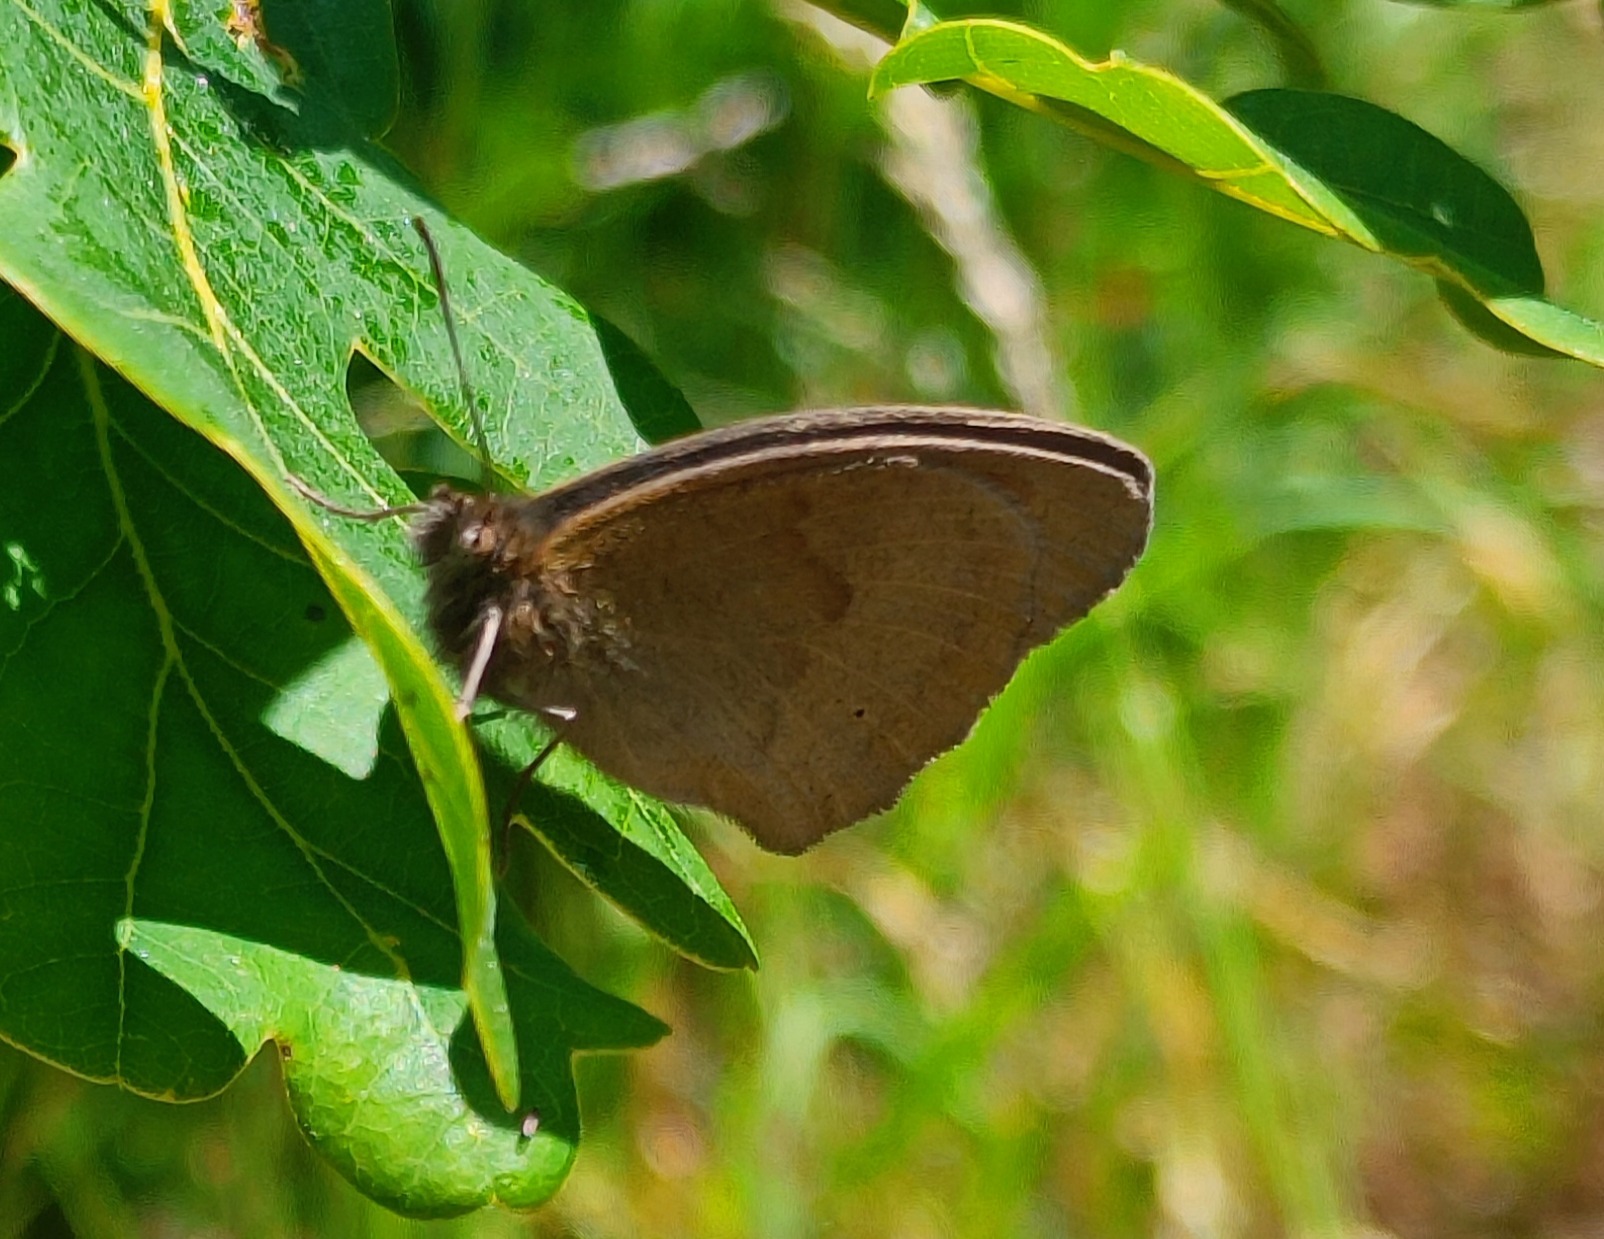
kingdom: Animalia
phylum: Arthropoda
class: Insecta
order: Lepidoptera
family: Nymphalidae
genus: Maniola
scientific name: Maniola jurtina
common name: Græsrandøje
